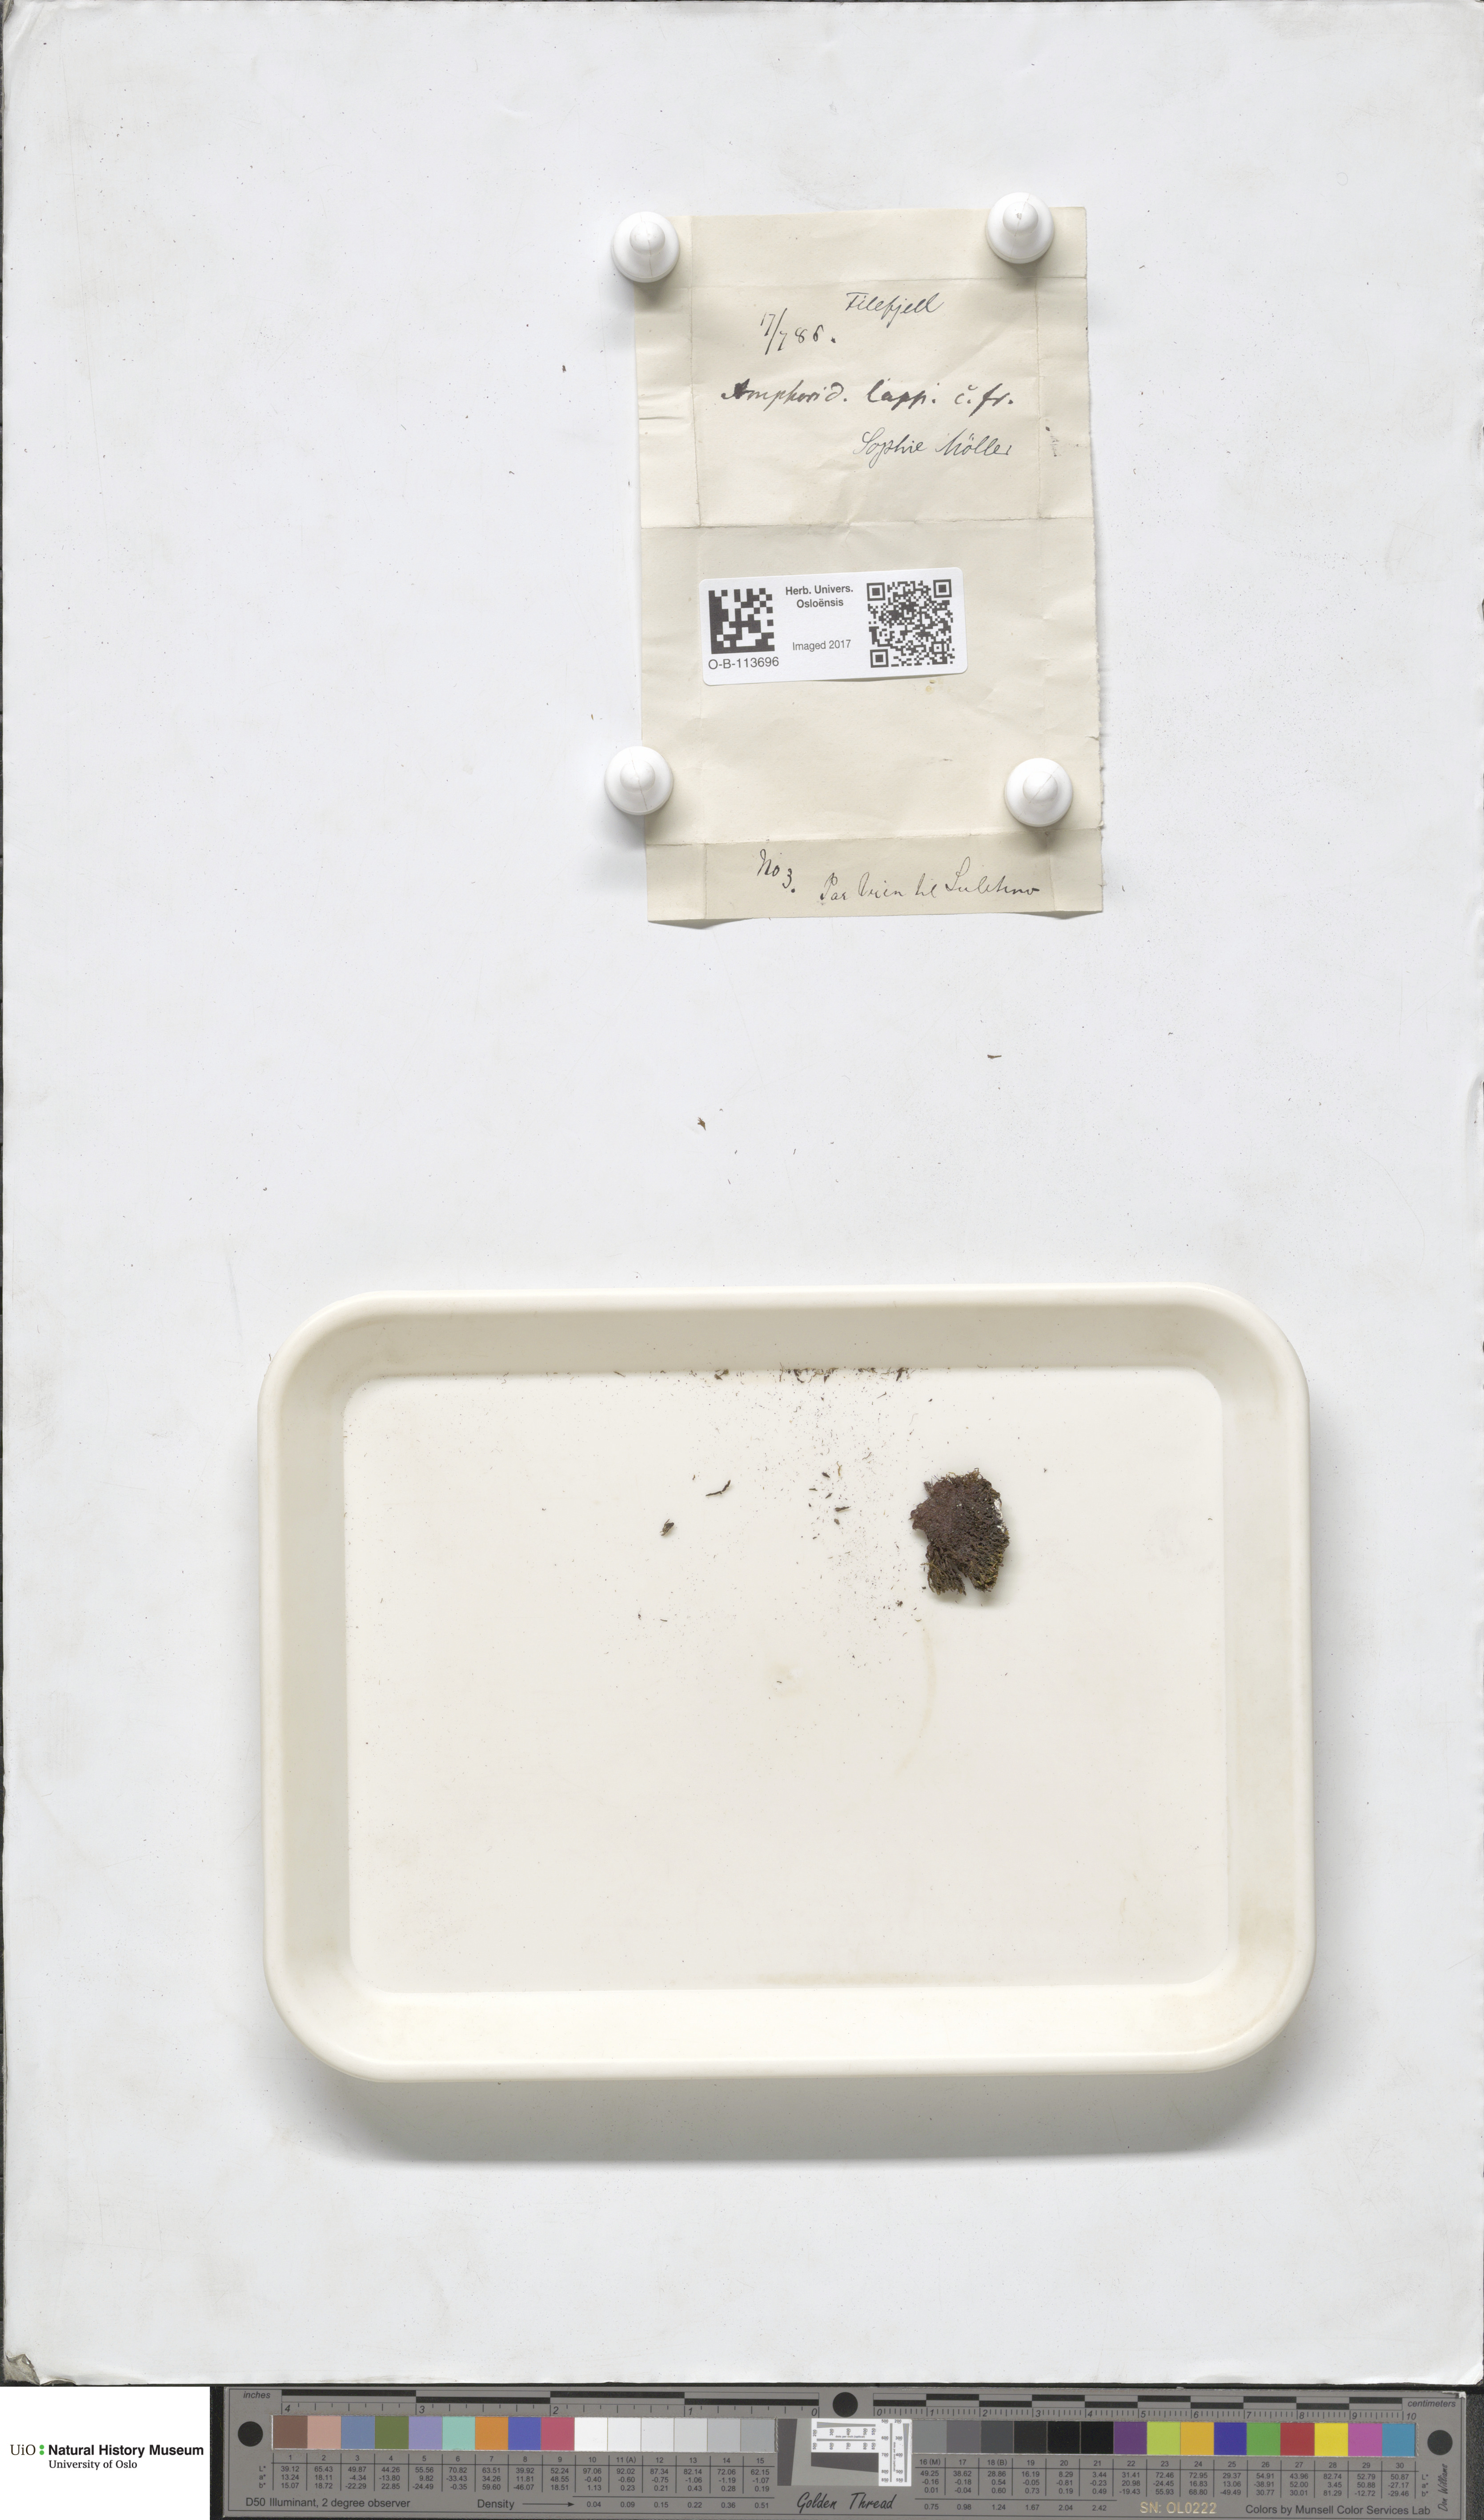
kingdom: Plantae
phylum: Bryophyta
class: Bryopsida
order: Dicranales
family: Amphidiaceae
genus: Amphidium
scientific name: Amphidium lapponicum
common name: Lapland yoke moss
